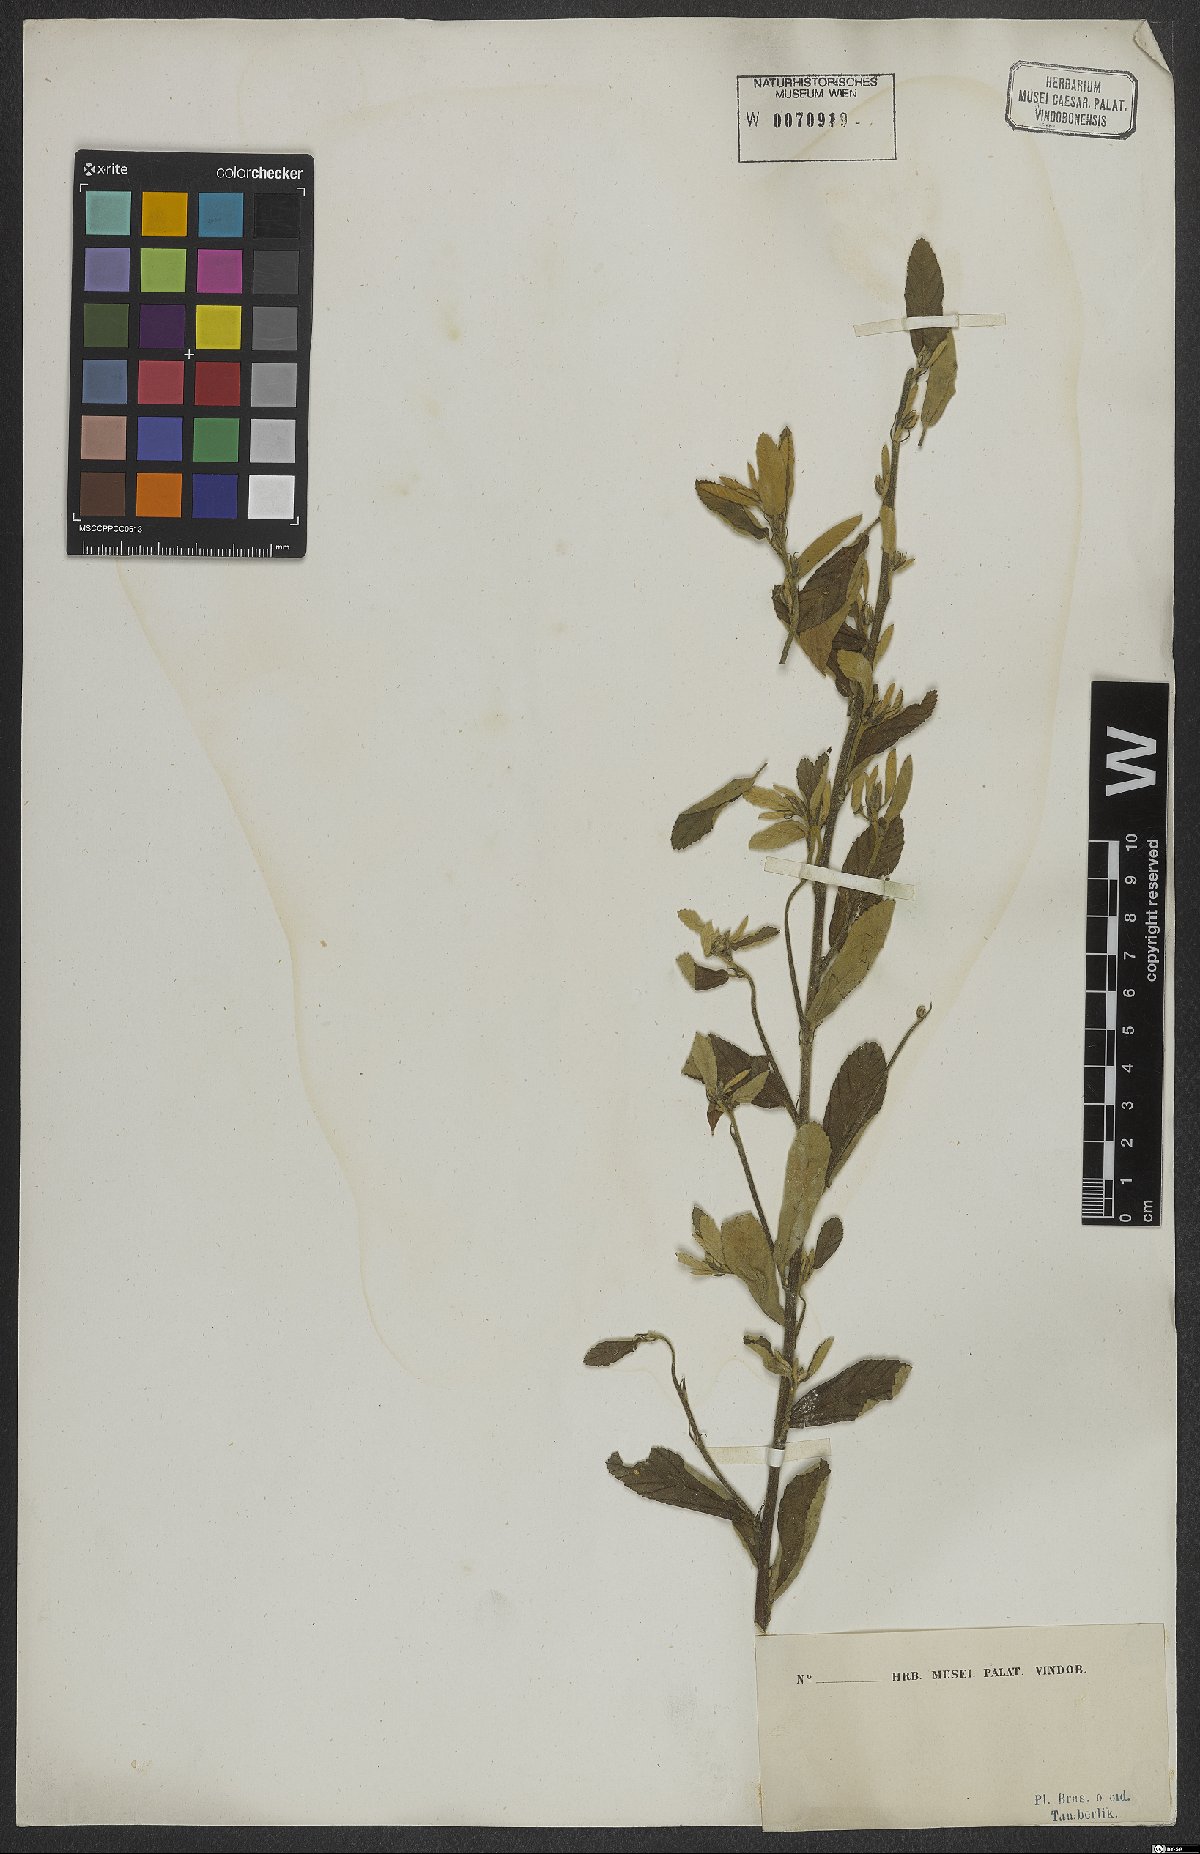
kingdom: Plantae
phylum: Tracheophyta
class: Magnoliopsida
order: Malvales
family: Sterculiaceae
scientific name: Sterculiaceae
